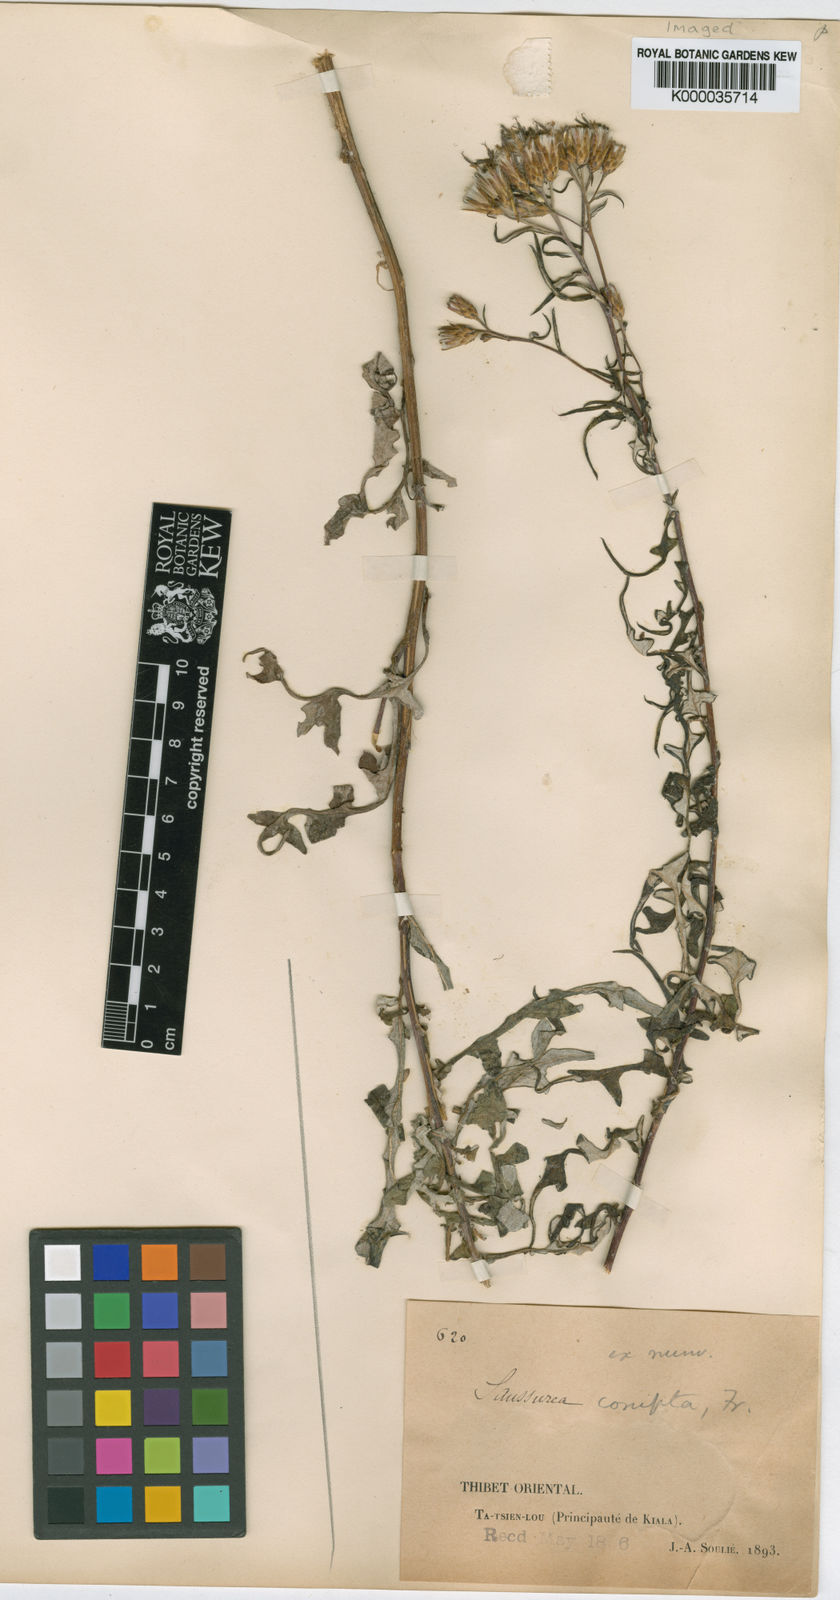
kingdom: Plantae
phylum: Tracheophyta
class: Magnoliopsida
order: Asterales
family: Asteraceae
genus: Saussurea
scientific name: Saussurea compta
